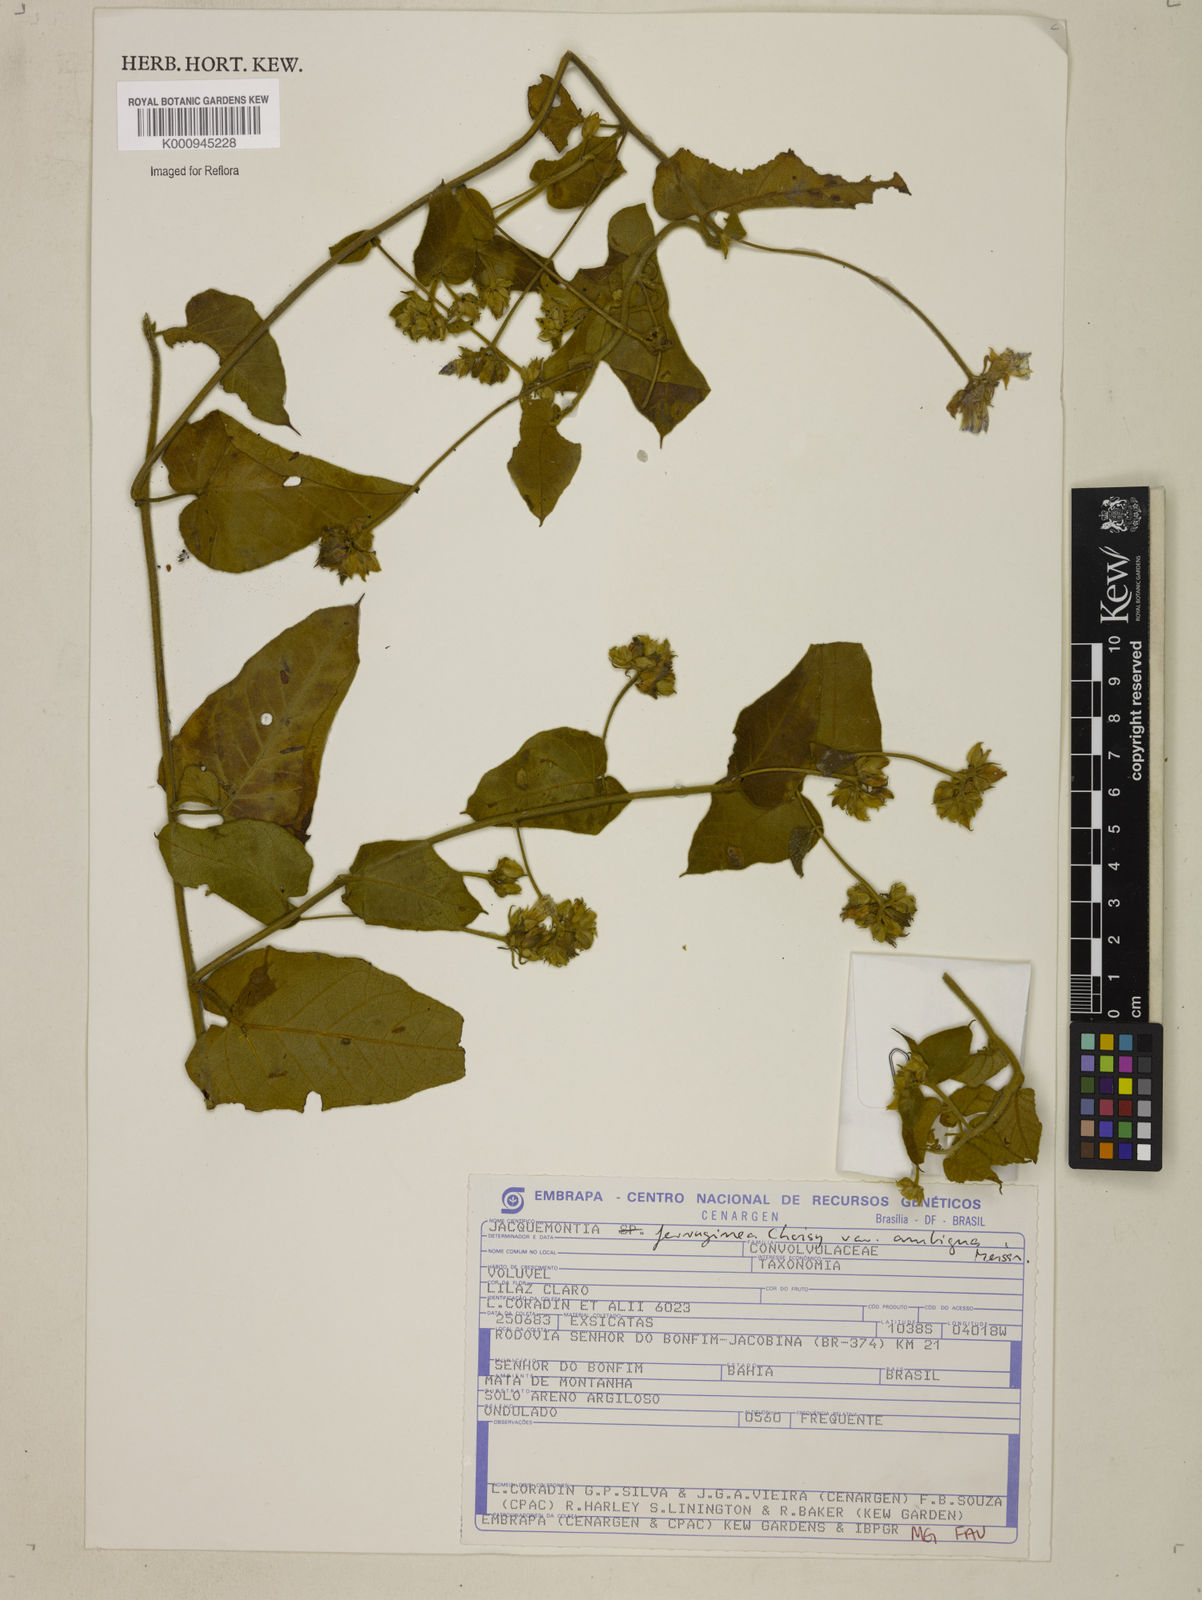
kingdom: Plantae
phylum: Tracheophyta
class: Magnoliopsida
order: Solanales
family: Convolvulaceae
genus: Jacquemontia
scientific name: Jacquemontia cumanensis
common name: Thicket clustervine
